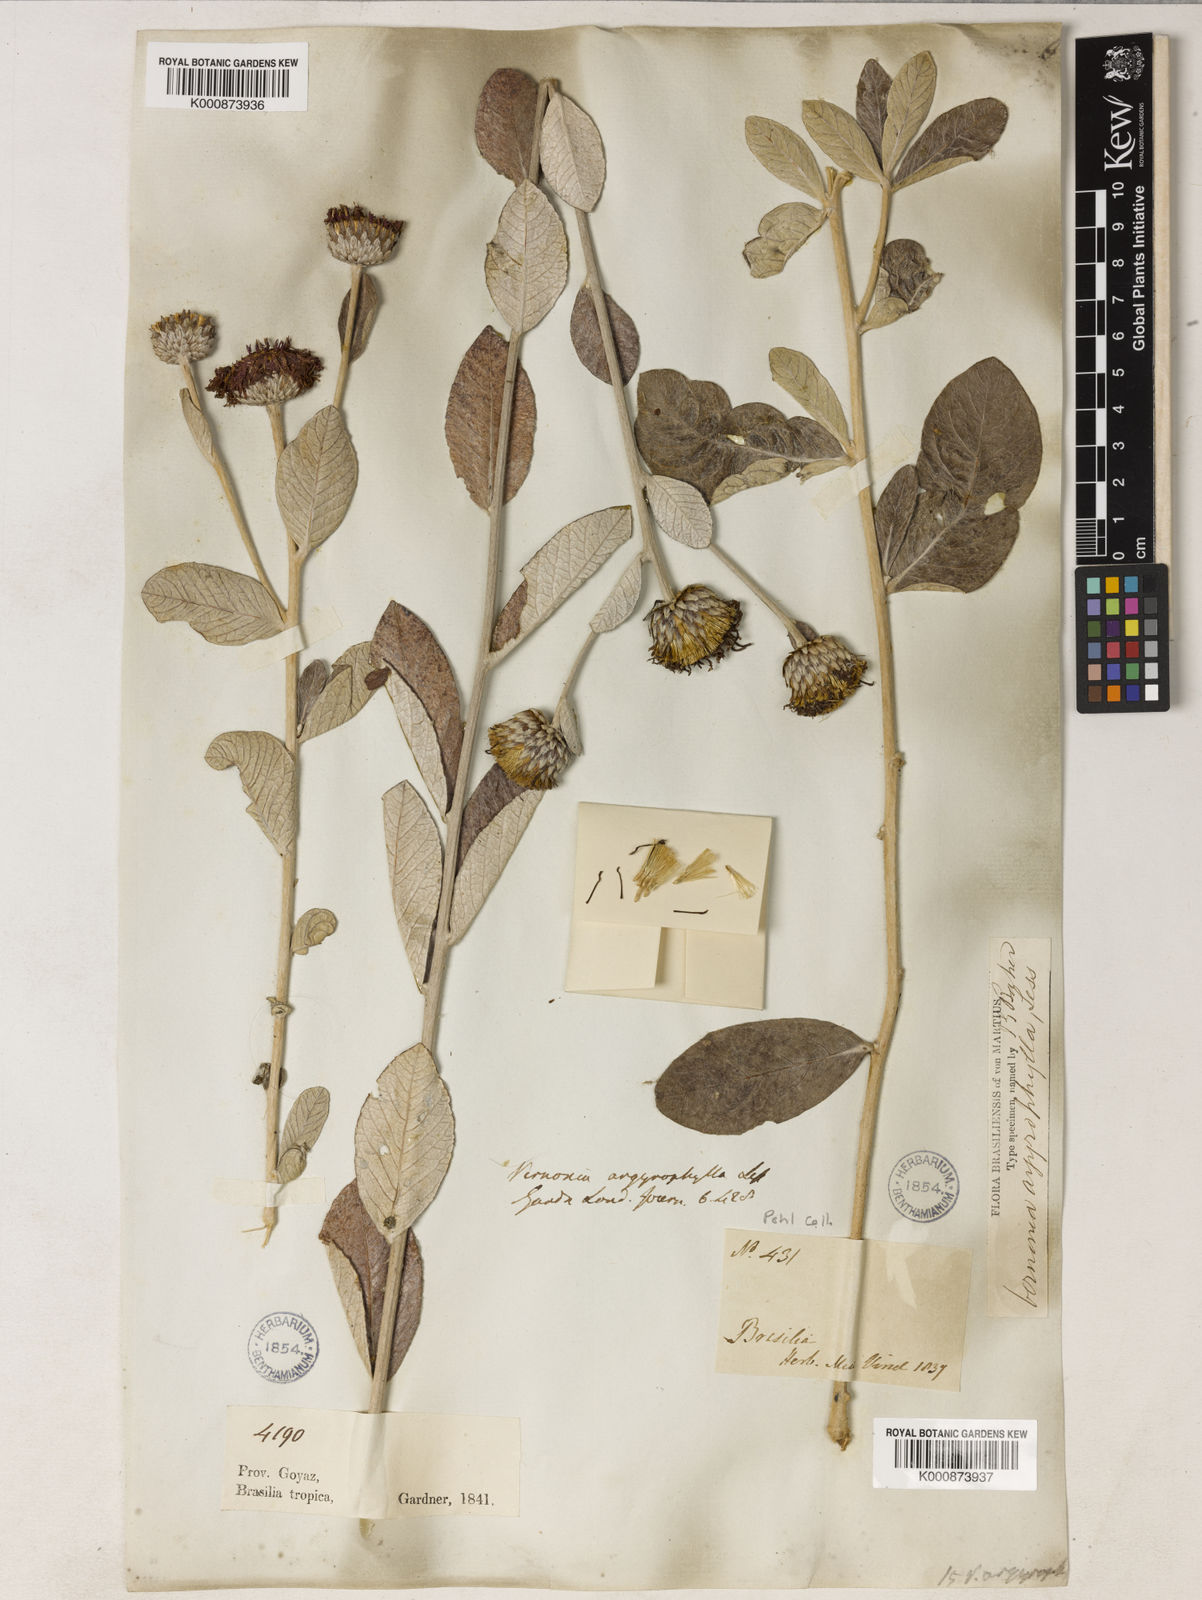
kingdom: Plantae
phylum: Tracheophyta
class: Magnoliopsida
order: Asterales
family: Asteraceae
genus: Lessingianthus
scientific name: Lessingianthus argyrophyllus
